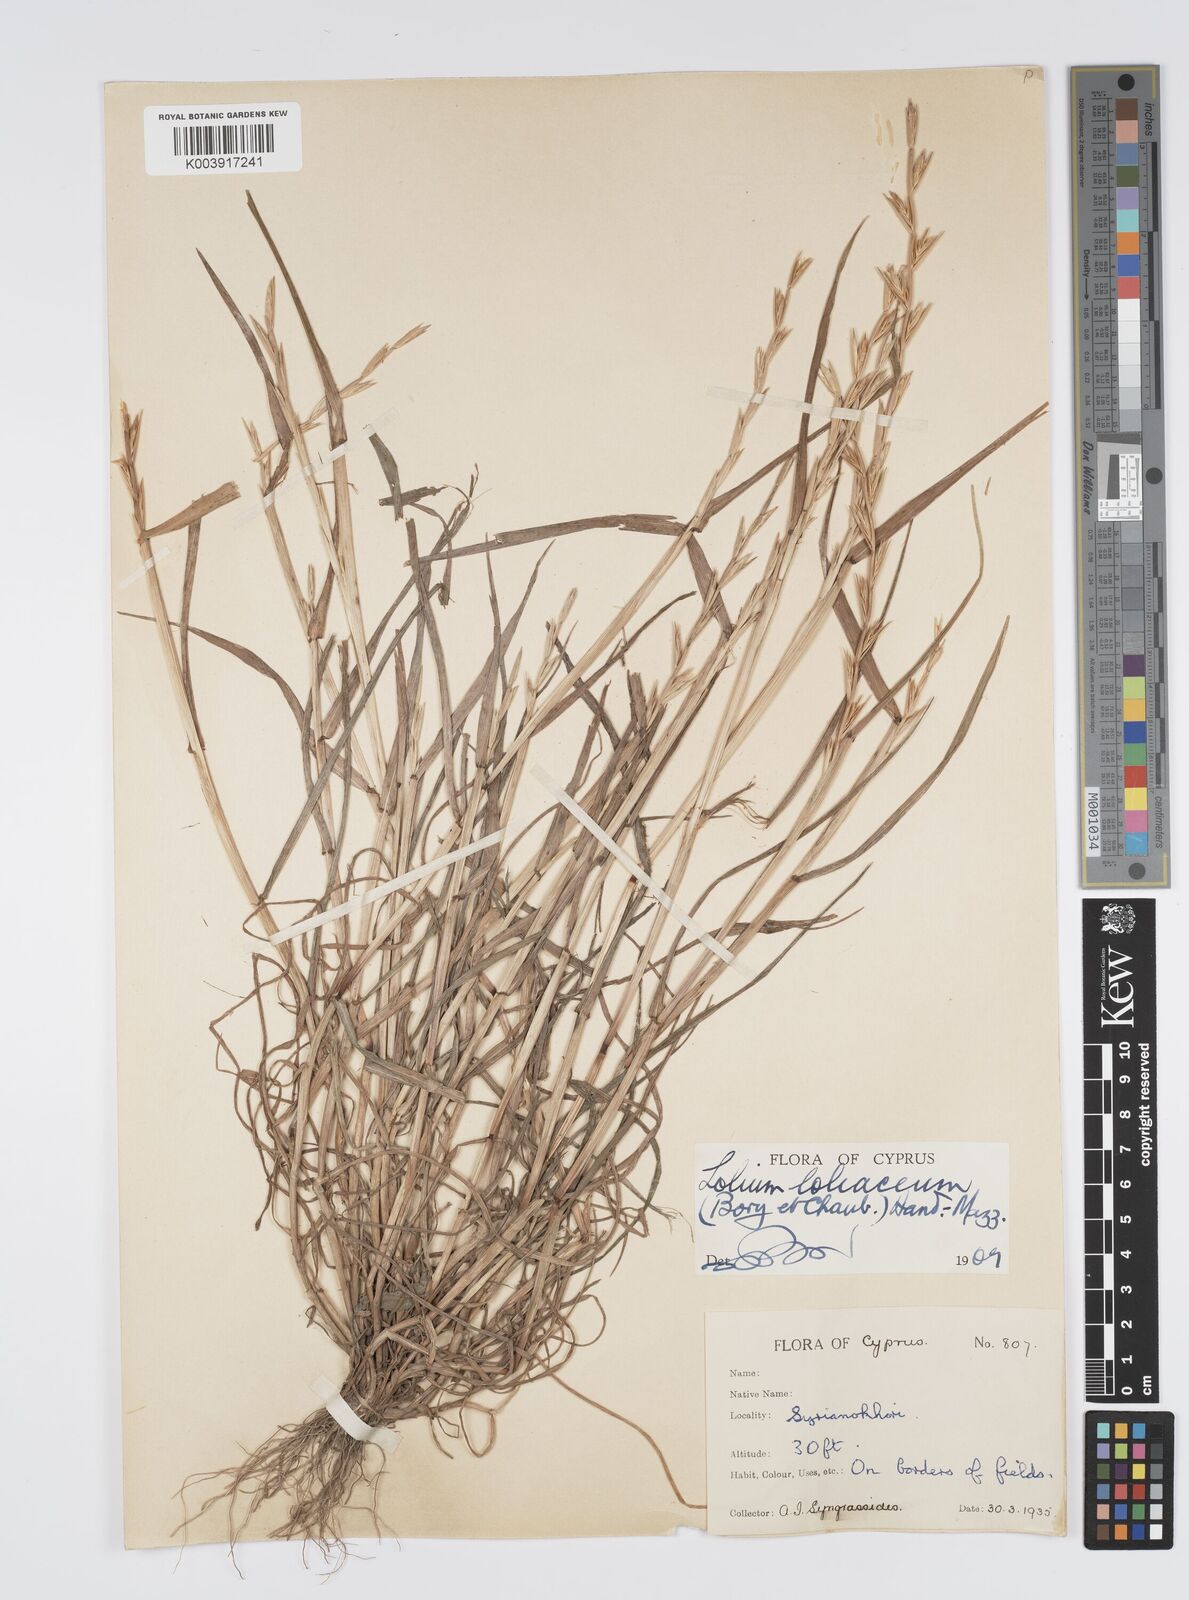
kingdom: Plantae
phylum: Tracheophyta
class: Liliopsida
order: Poales
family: Poaceae
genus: Lolium
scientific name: Lolium rigidum
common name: Wimmera ryegrass
